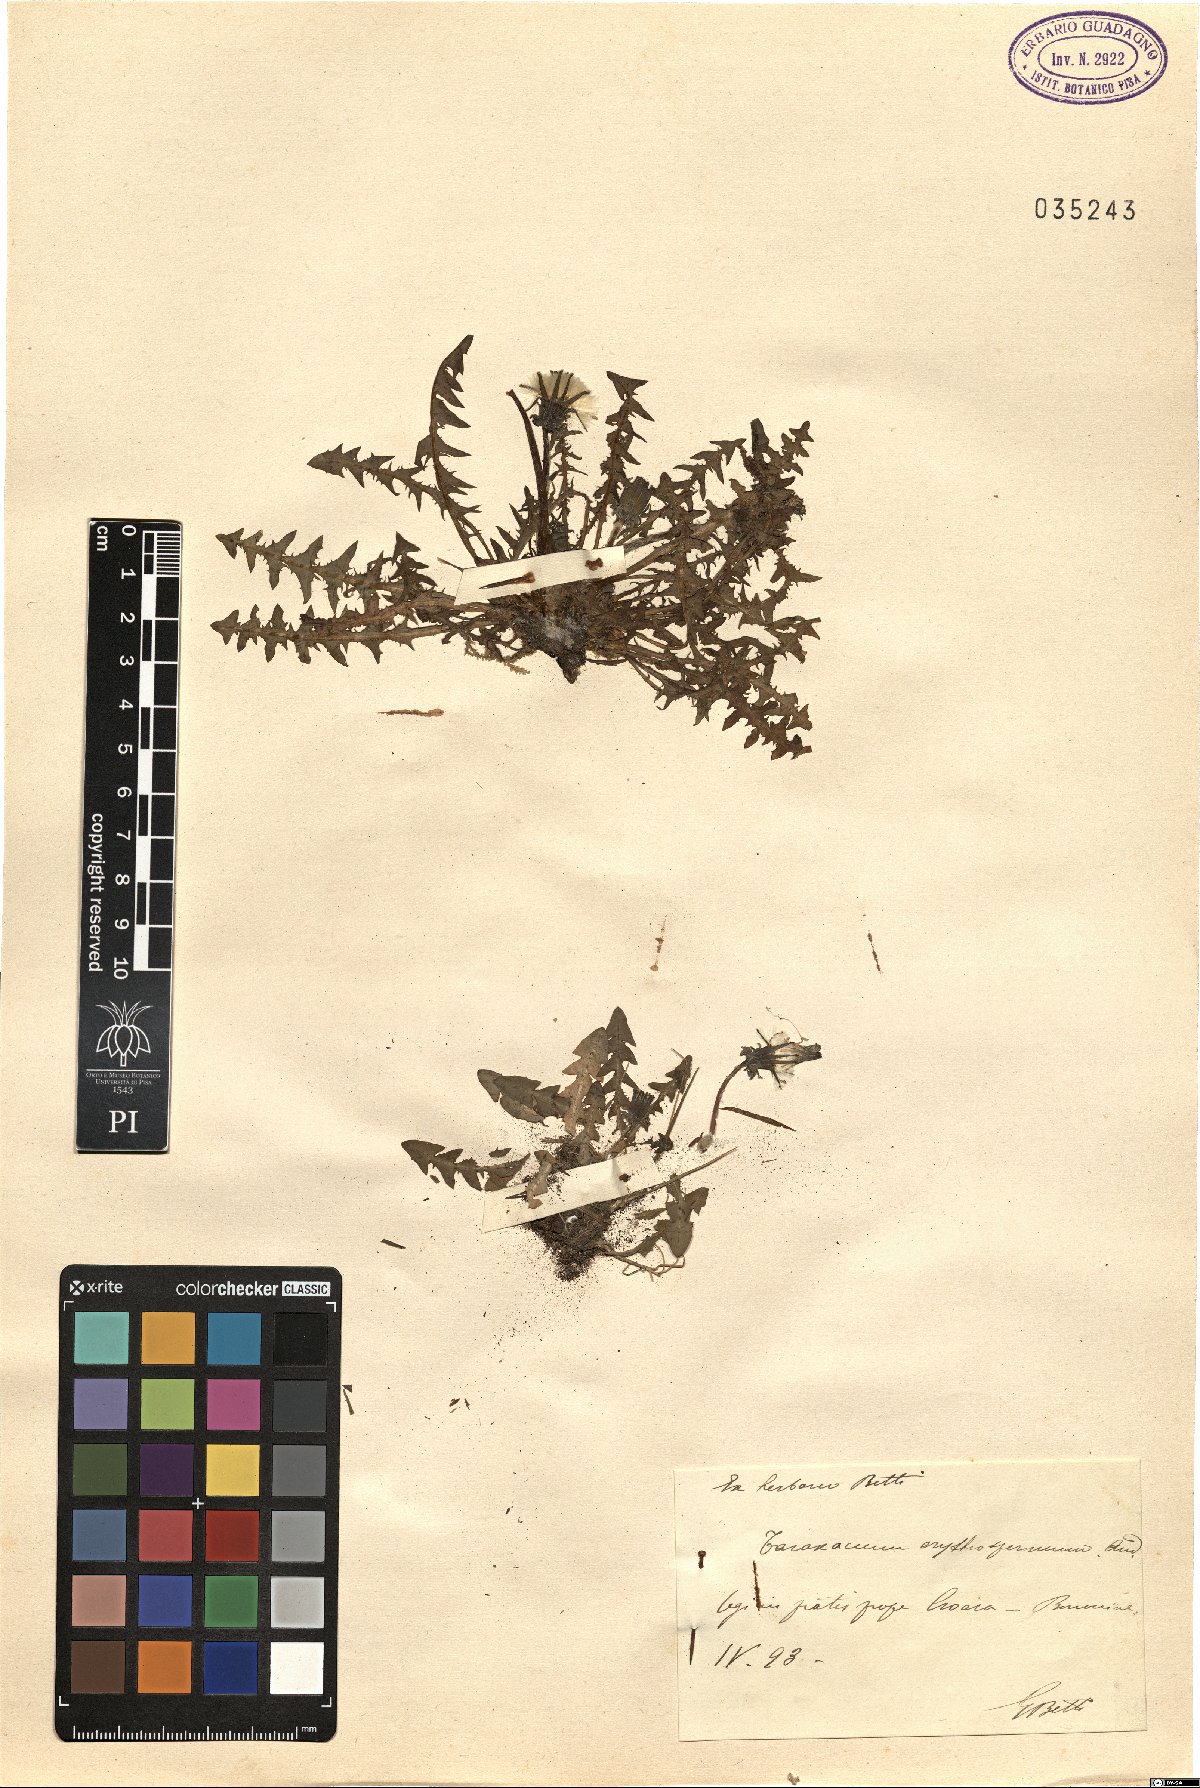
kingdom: Plantae
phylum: Tracheophyta
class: Magnoliopsida
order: Asterales
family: Asteraceae
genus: Taraxacum
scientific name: Taraxacum erythrospermum
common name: Rock dandelion
